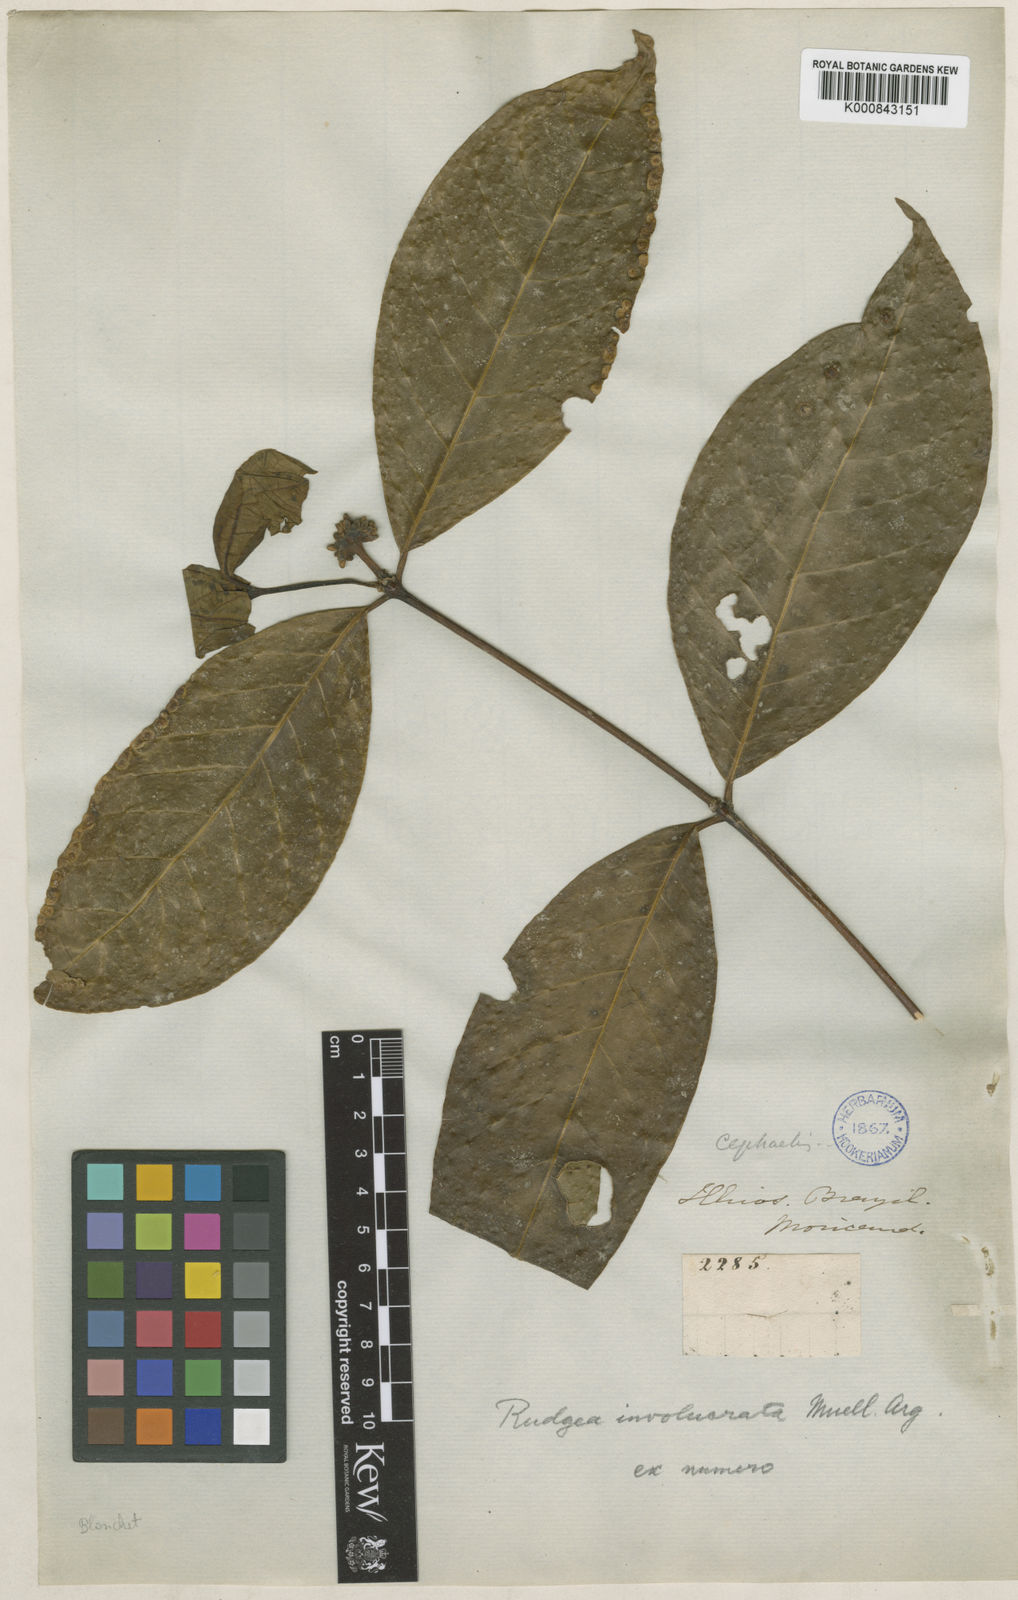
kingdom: Plantae
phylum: Tracheophyta
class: Magnoliopsida
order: Gentianales
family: Rubiaceae
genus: Rudgea
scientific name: Rudgea
